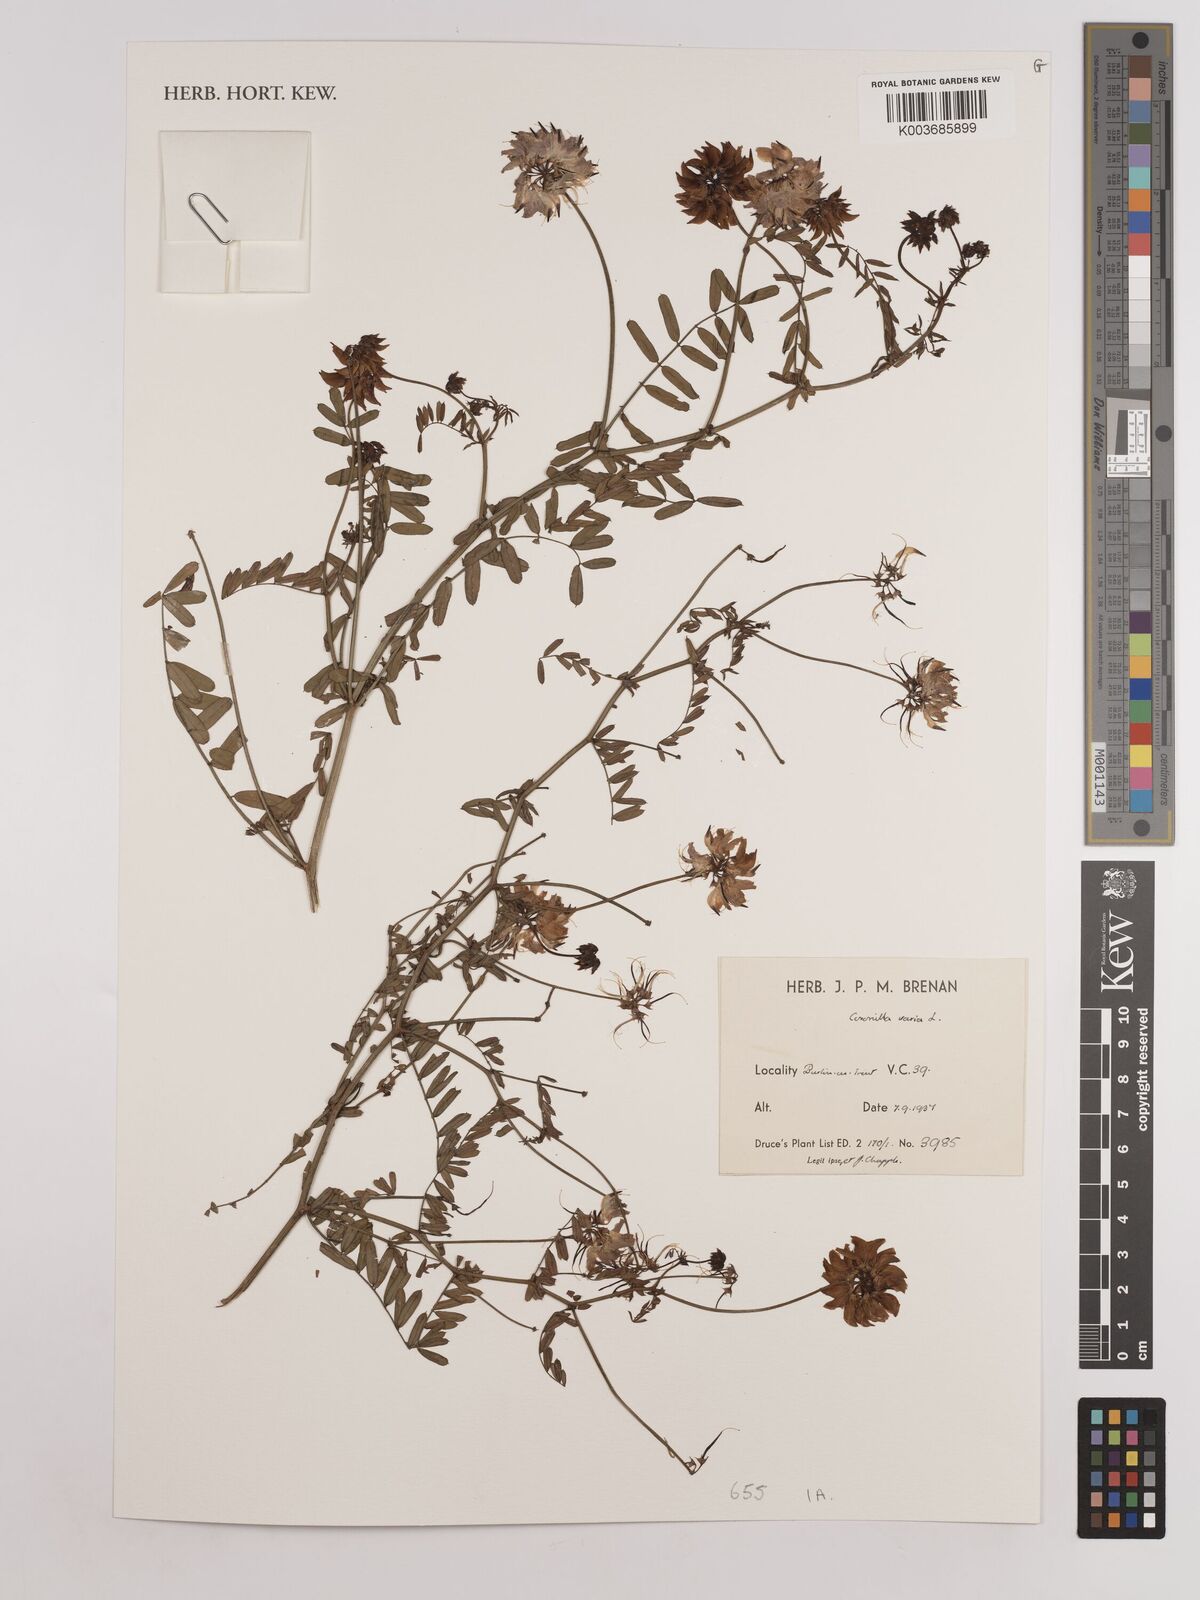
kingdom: Plantae
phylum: Tracheophyta
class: Magnoliopsida
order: Fabales
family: Fabaceae
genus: Coronilla
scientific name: Coronilla varia
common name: Crownvetch
